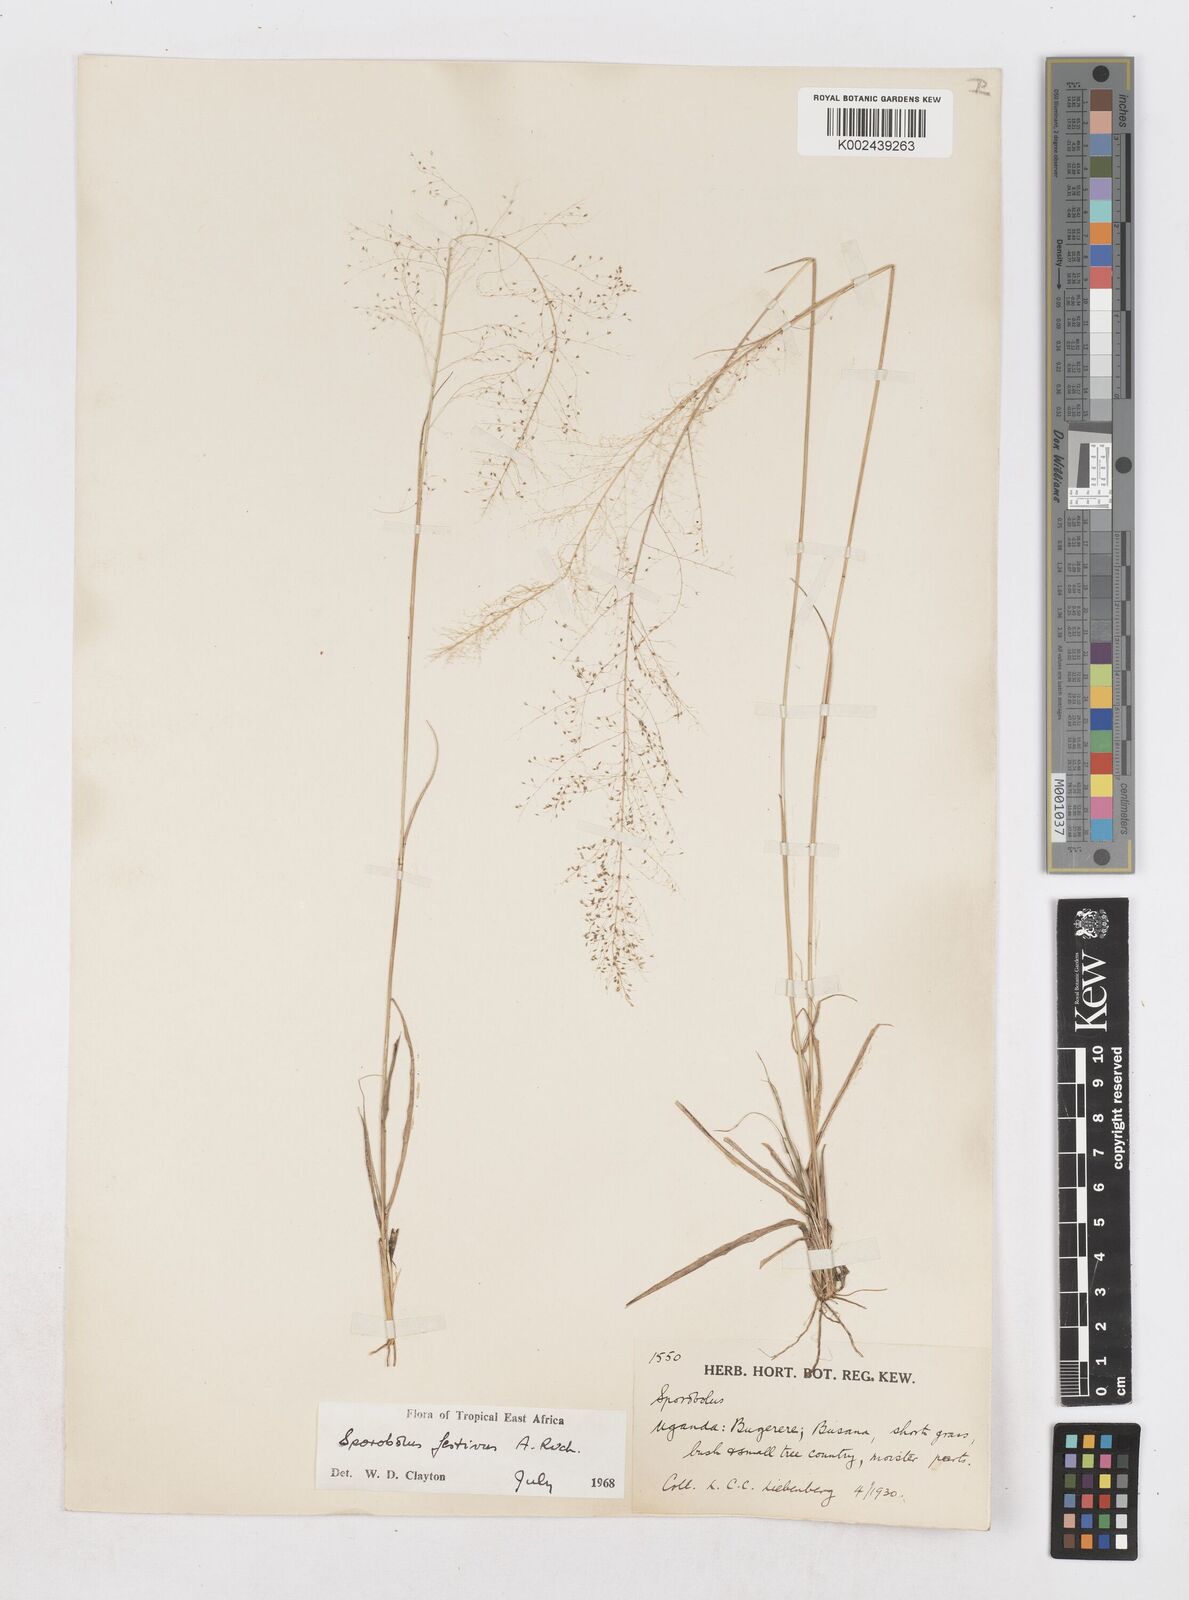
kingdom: Plantae
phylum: Tracheophyta
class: Liliopsida
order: Poales
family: Poaceae
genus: Sporobolus
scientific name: Sporobolus festivus
